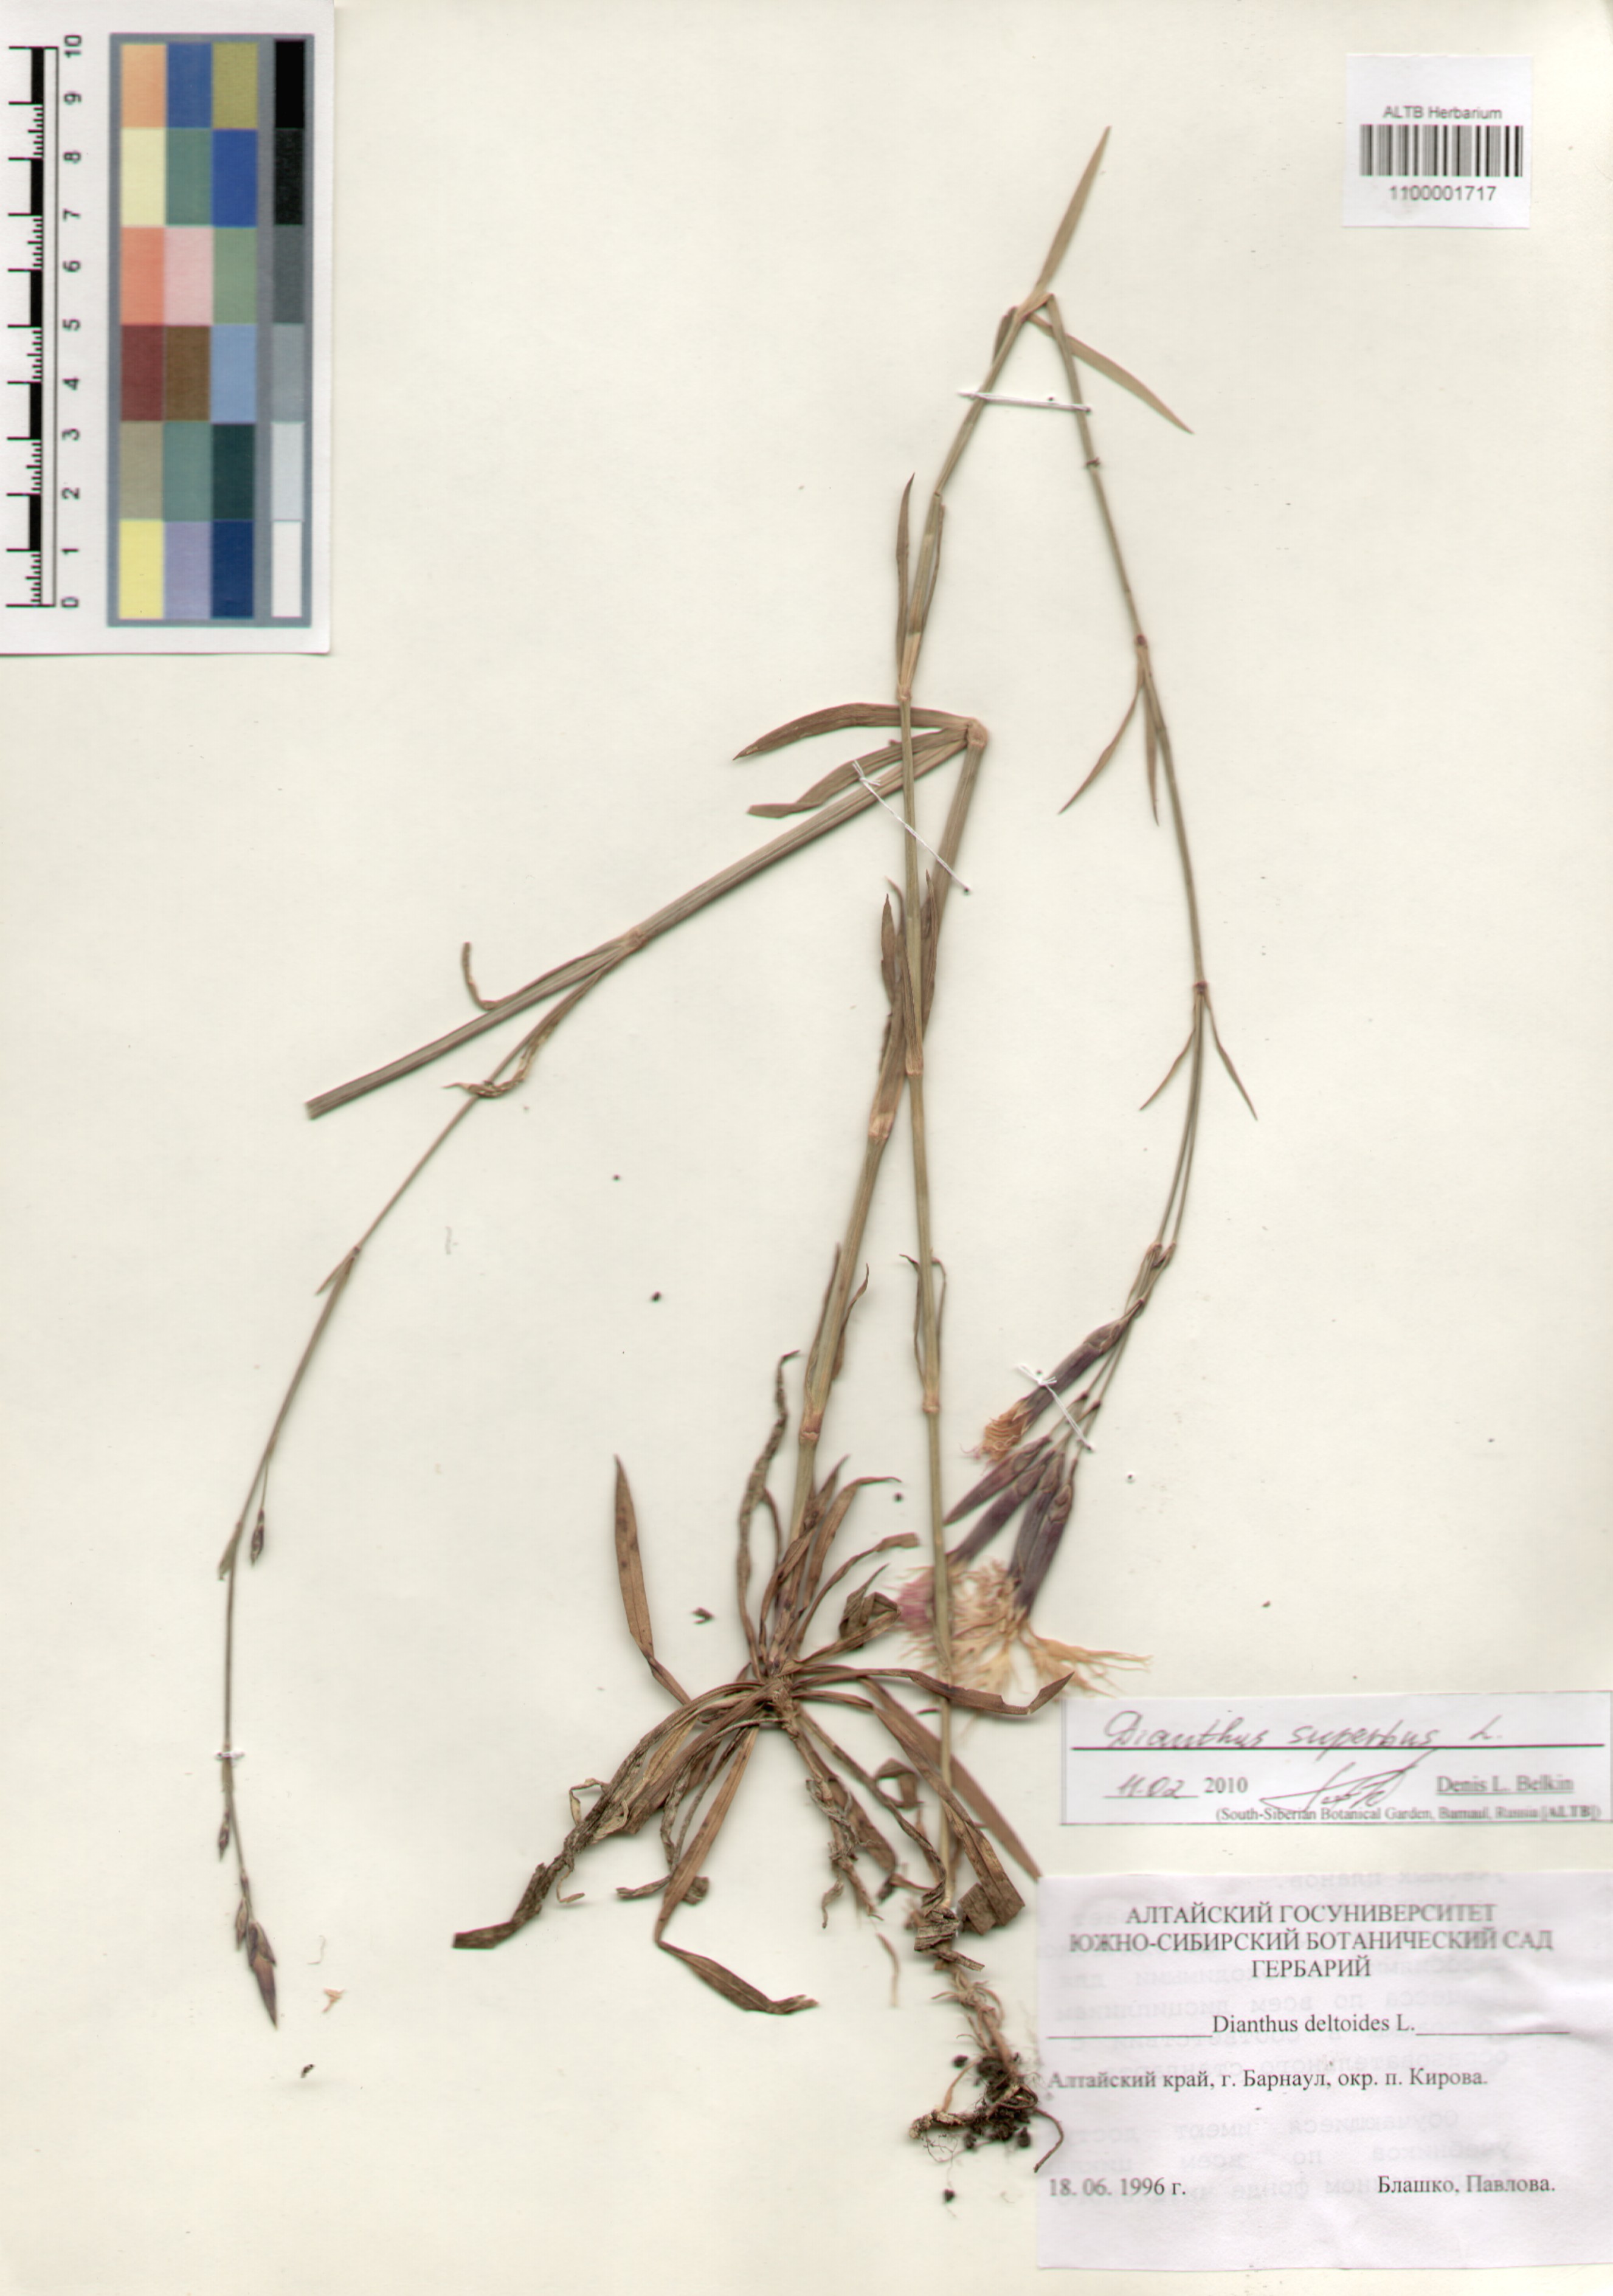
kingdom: Plantae
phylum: Tracheophyta
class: Magnoliopsida
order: Caryophyllales
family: Caryophyllaceae
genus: Dianthus
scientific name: Dianthus superbus
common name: Fringed pink
